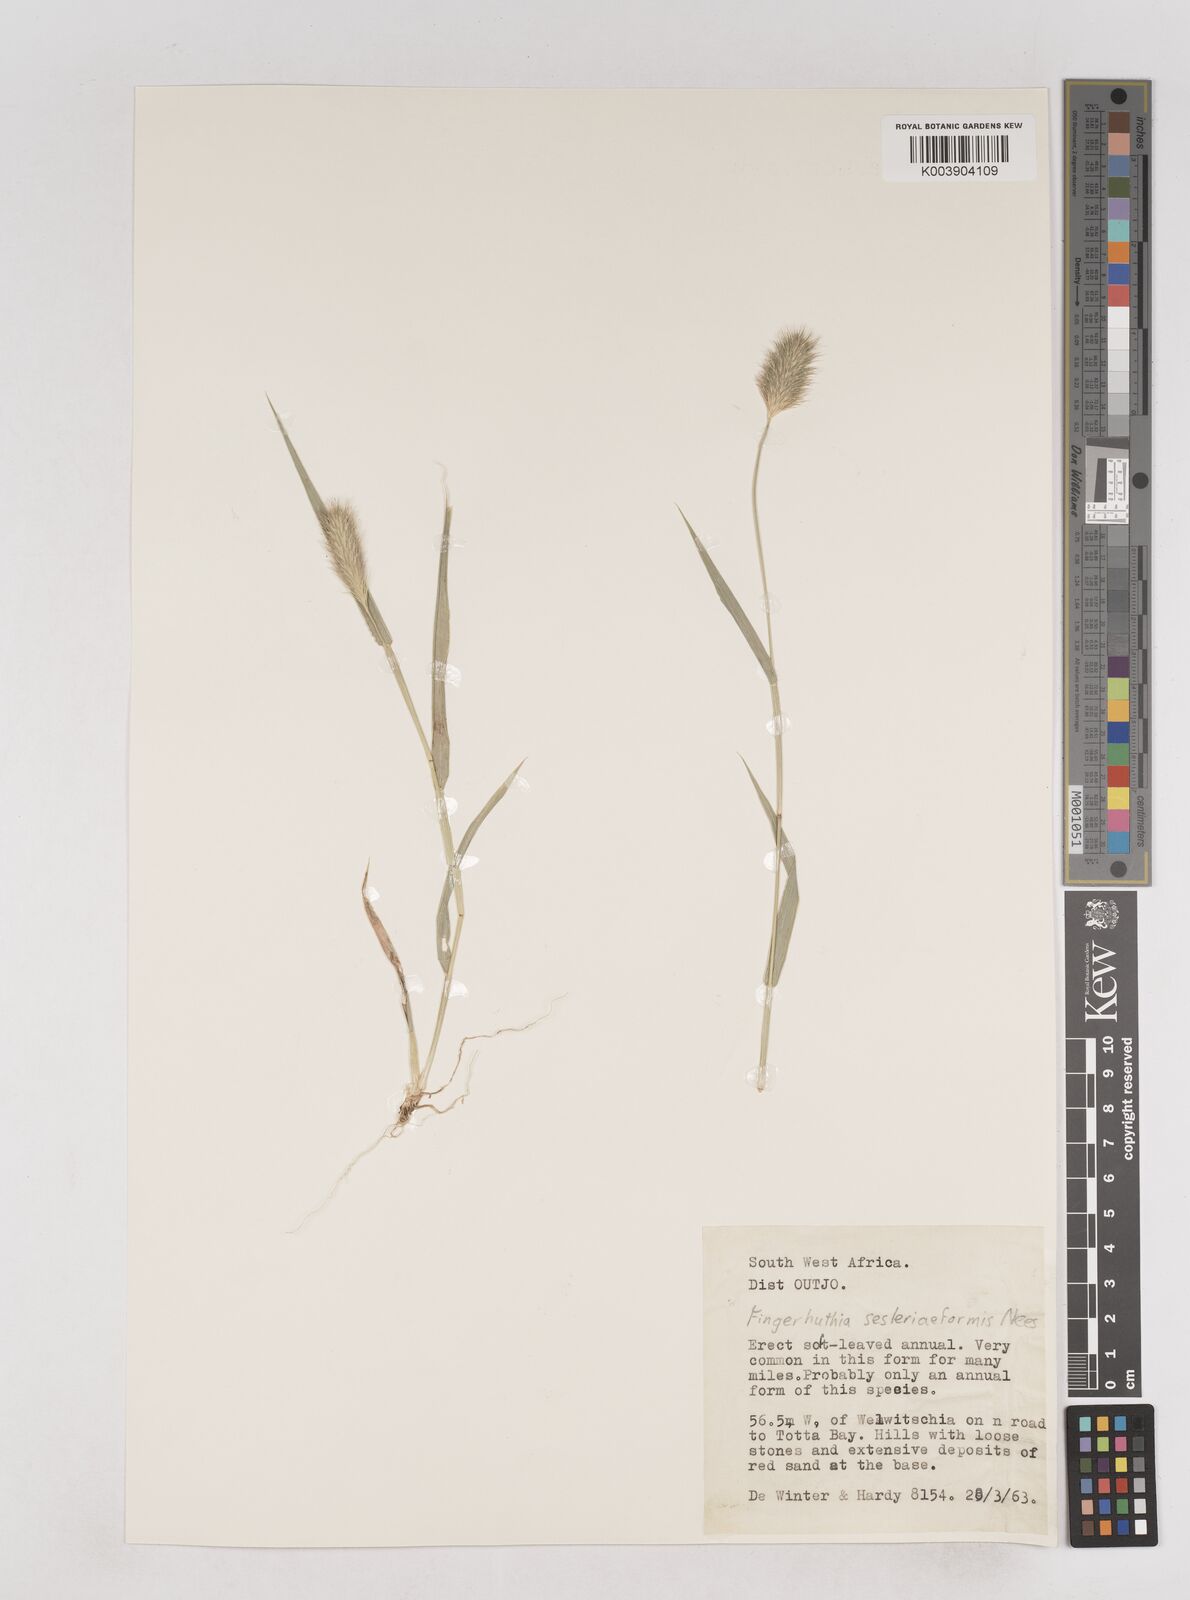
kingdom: Plantae
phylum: Tracheophyta
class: Liliopsida
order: Poales
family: Poaceae
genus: Fingerhuthia
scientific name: Fingerhuthia sesleriiformis
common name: Thimble grass
